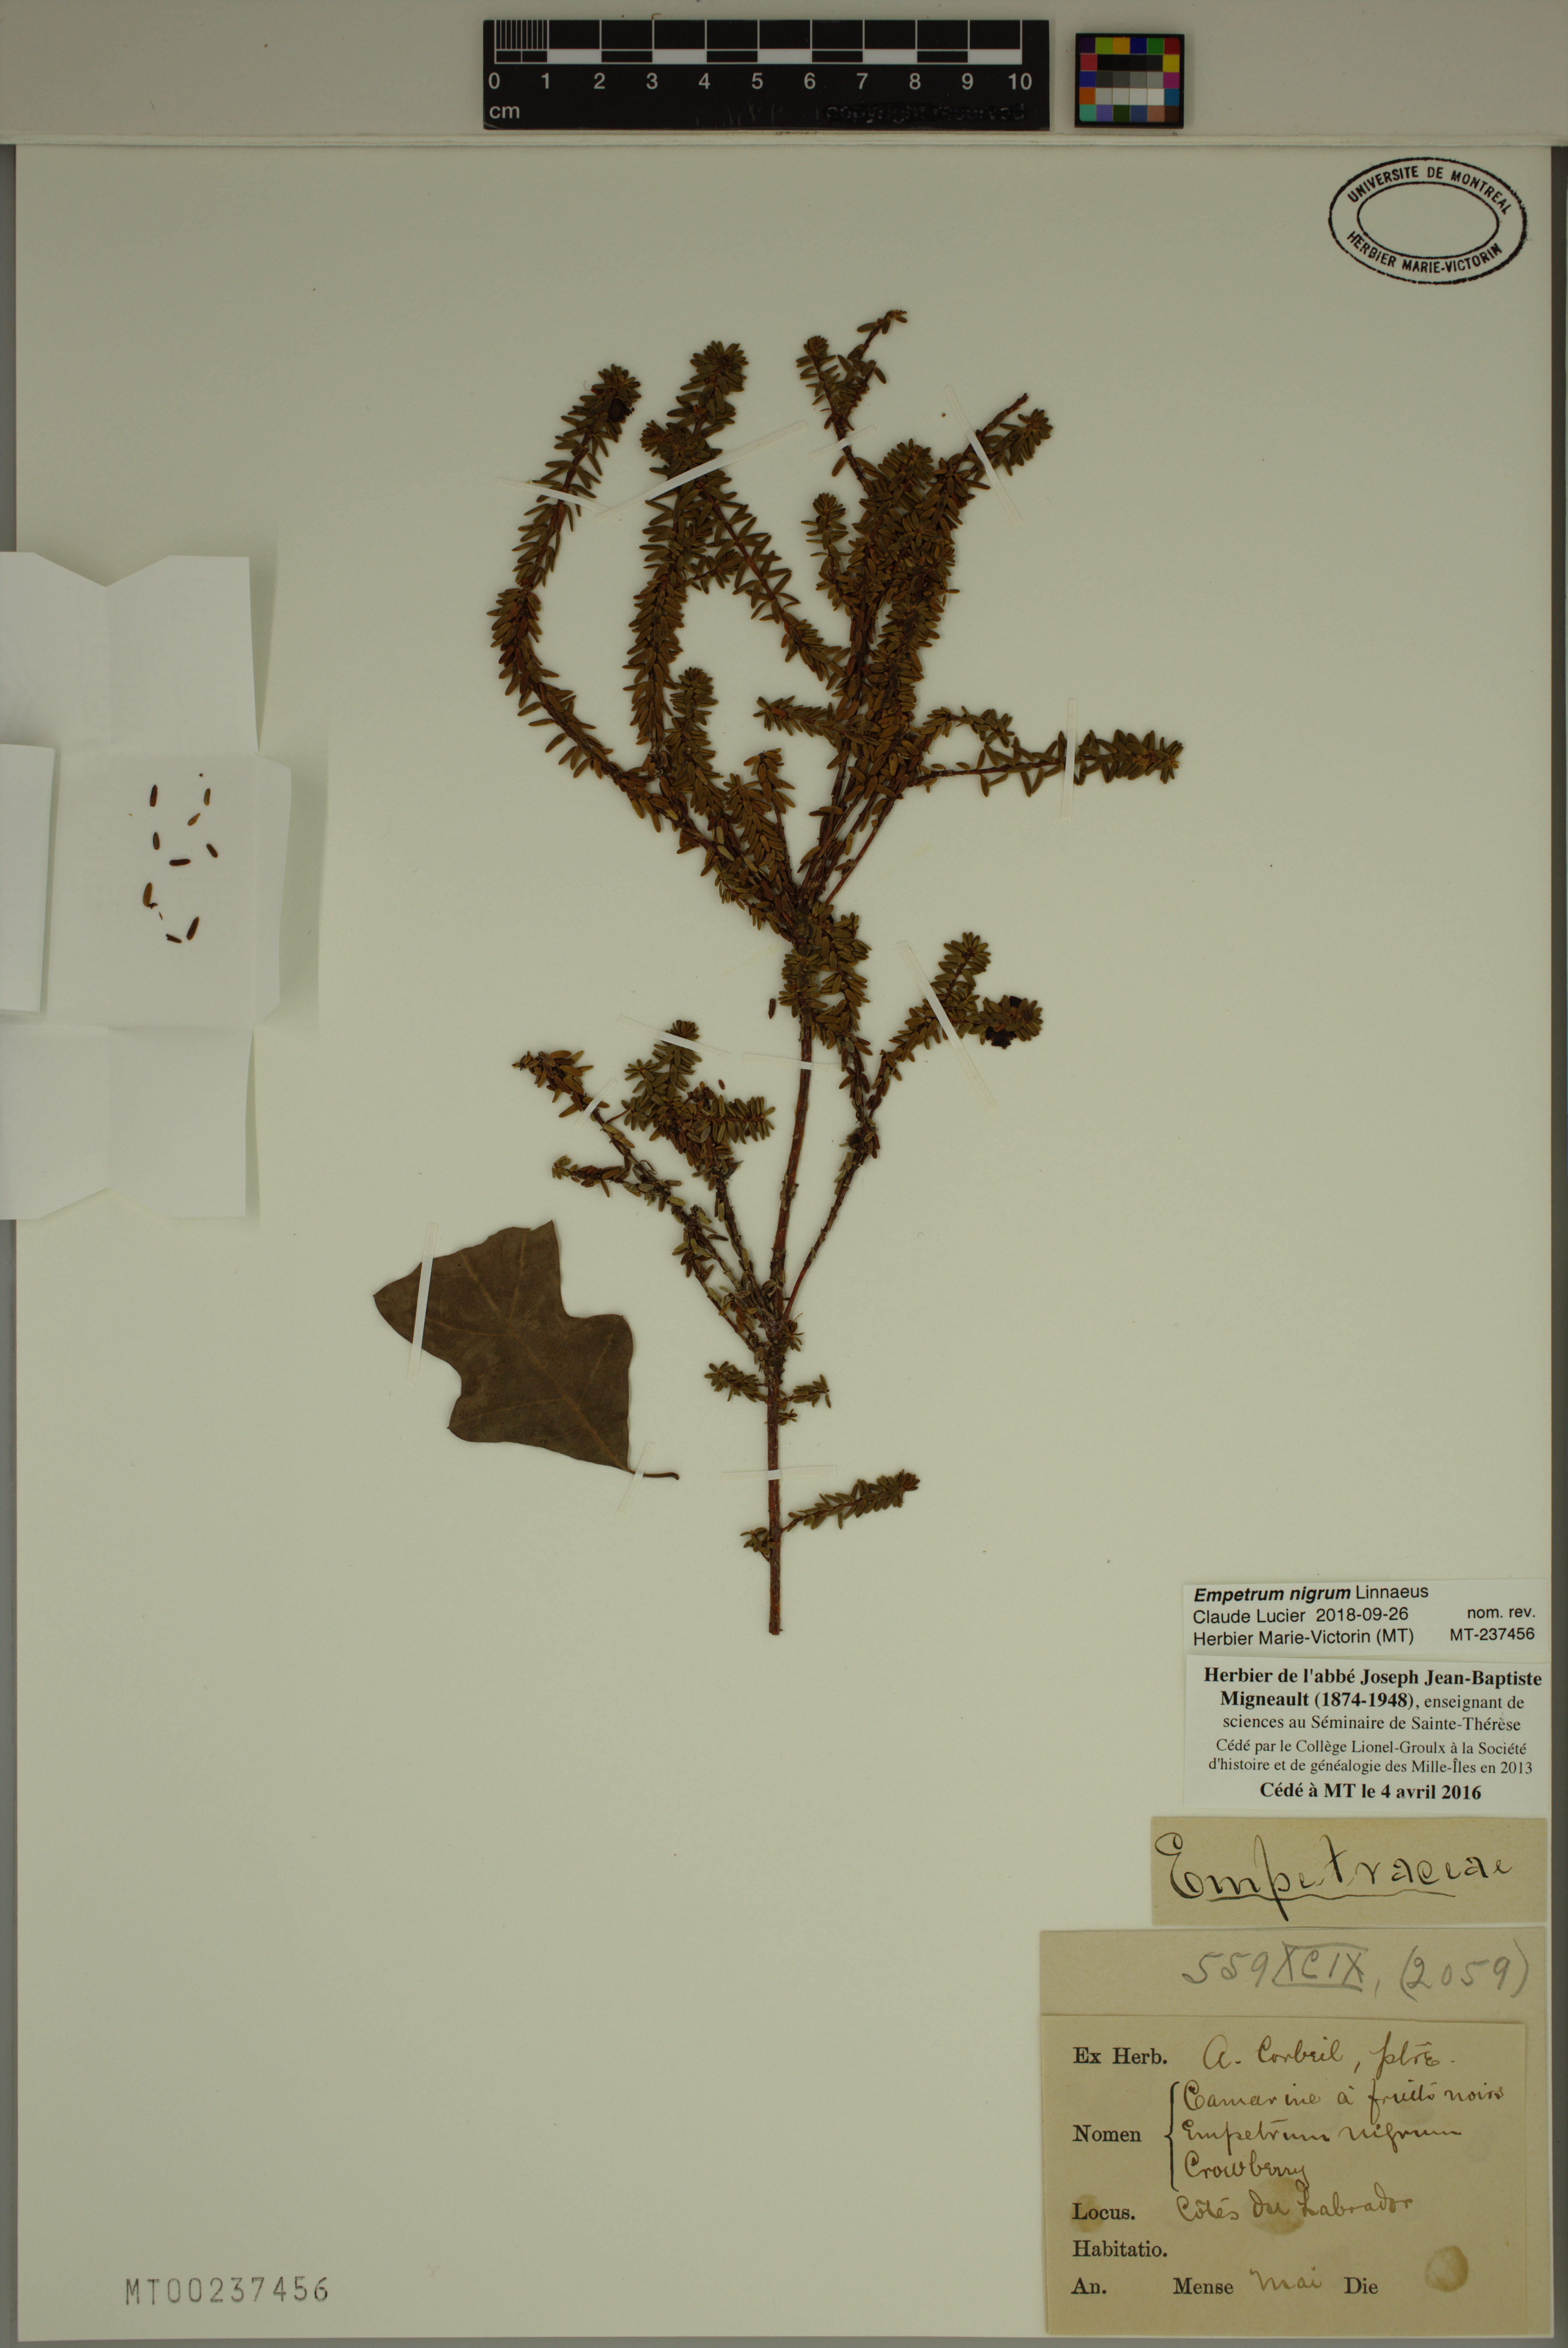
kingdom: Plantae
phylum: Tracheophyta
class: Magnoliopsida
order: Ericales
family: Ericaceae
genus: Empetrum
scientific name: Empetrum nigrum
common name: Black crowberry
